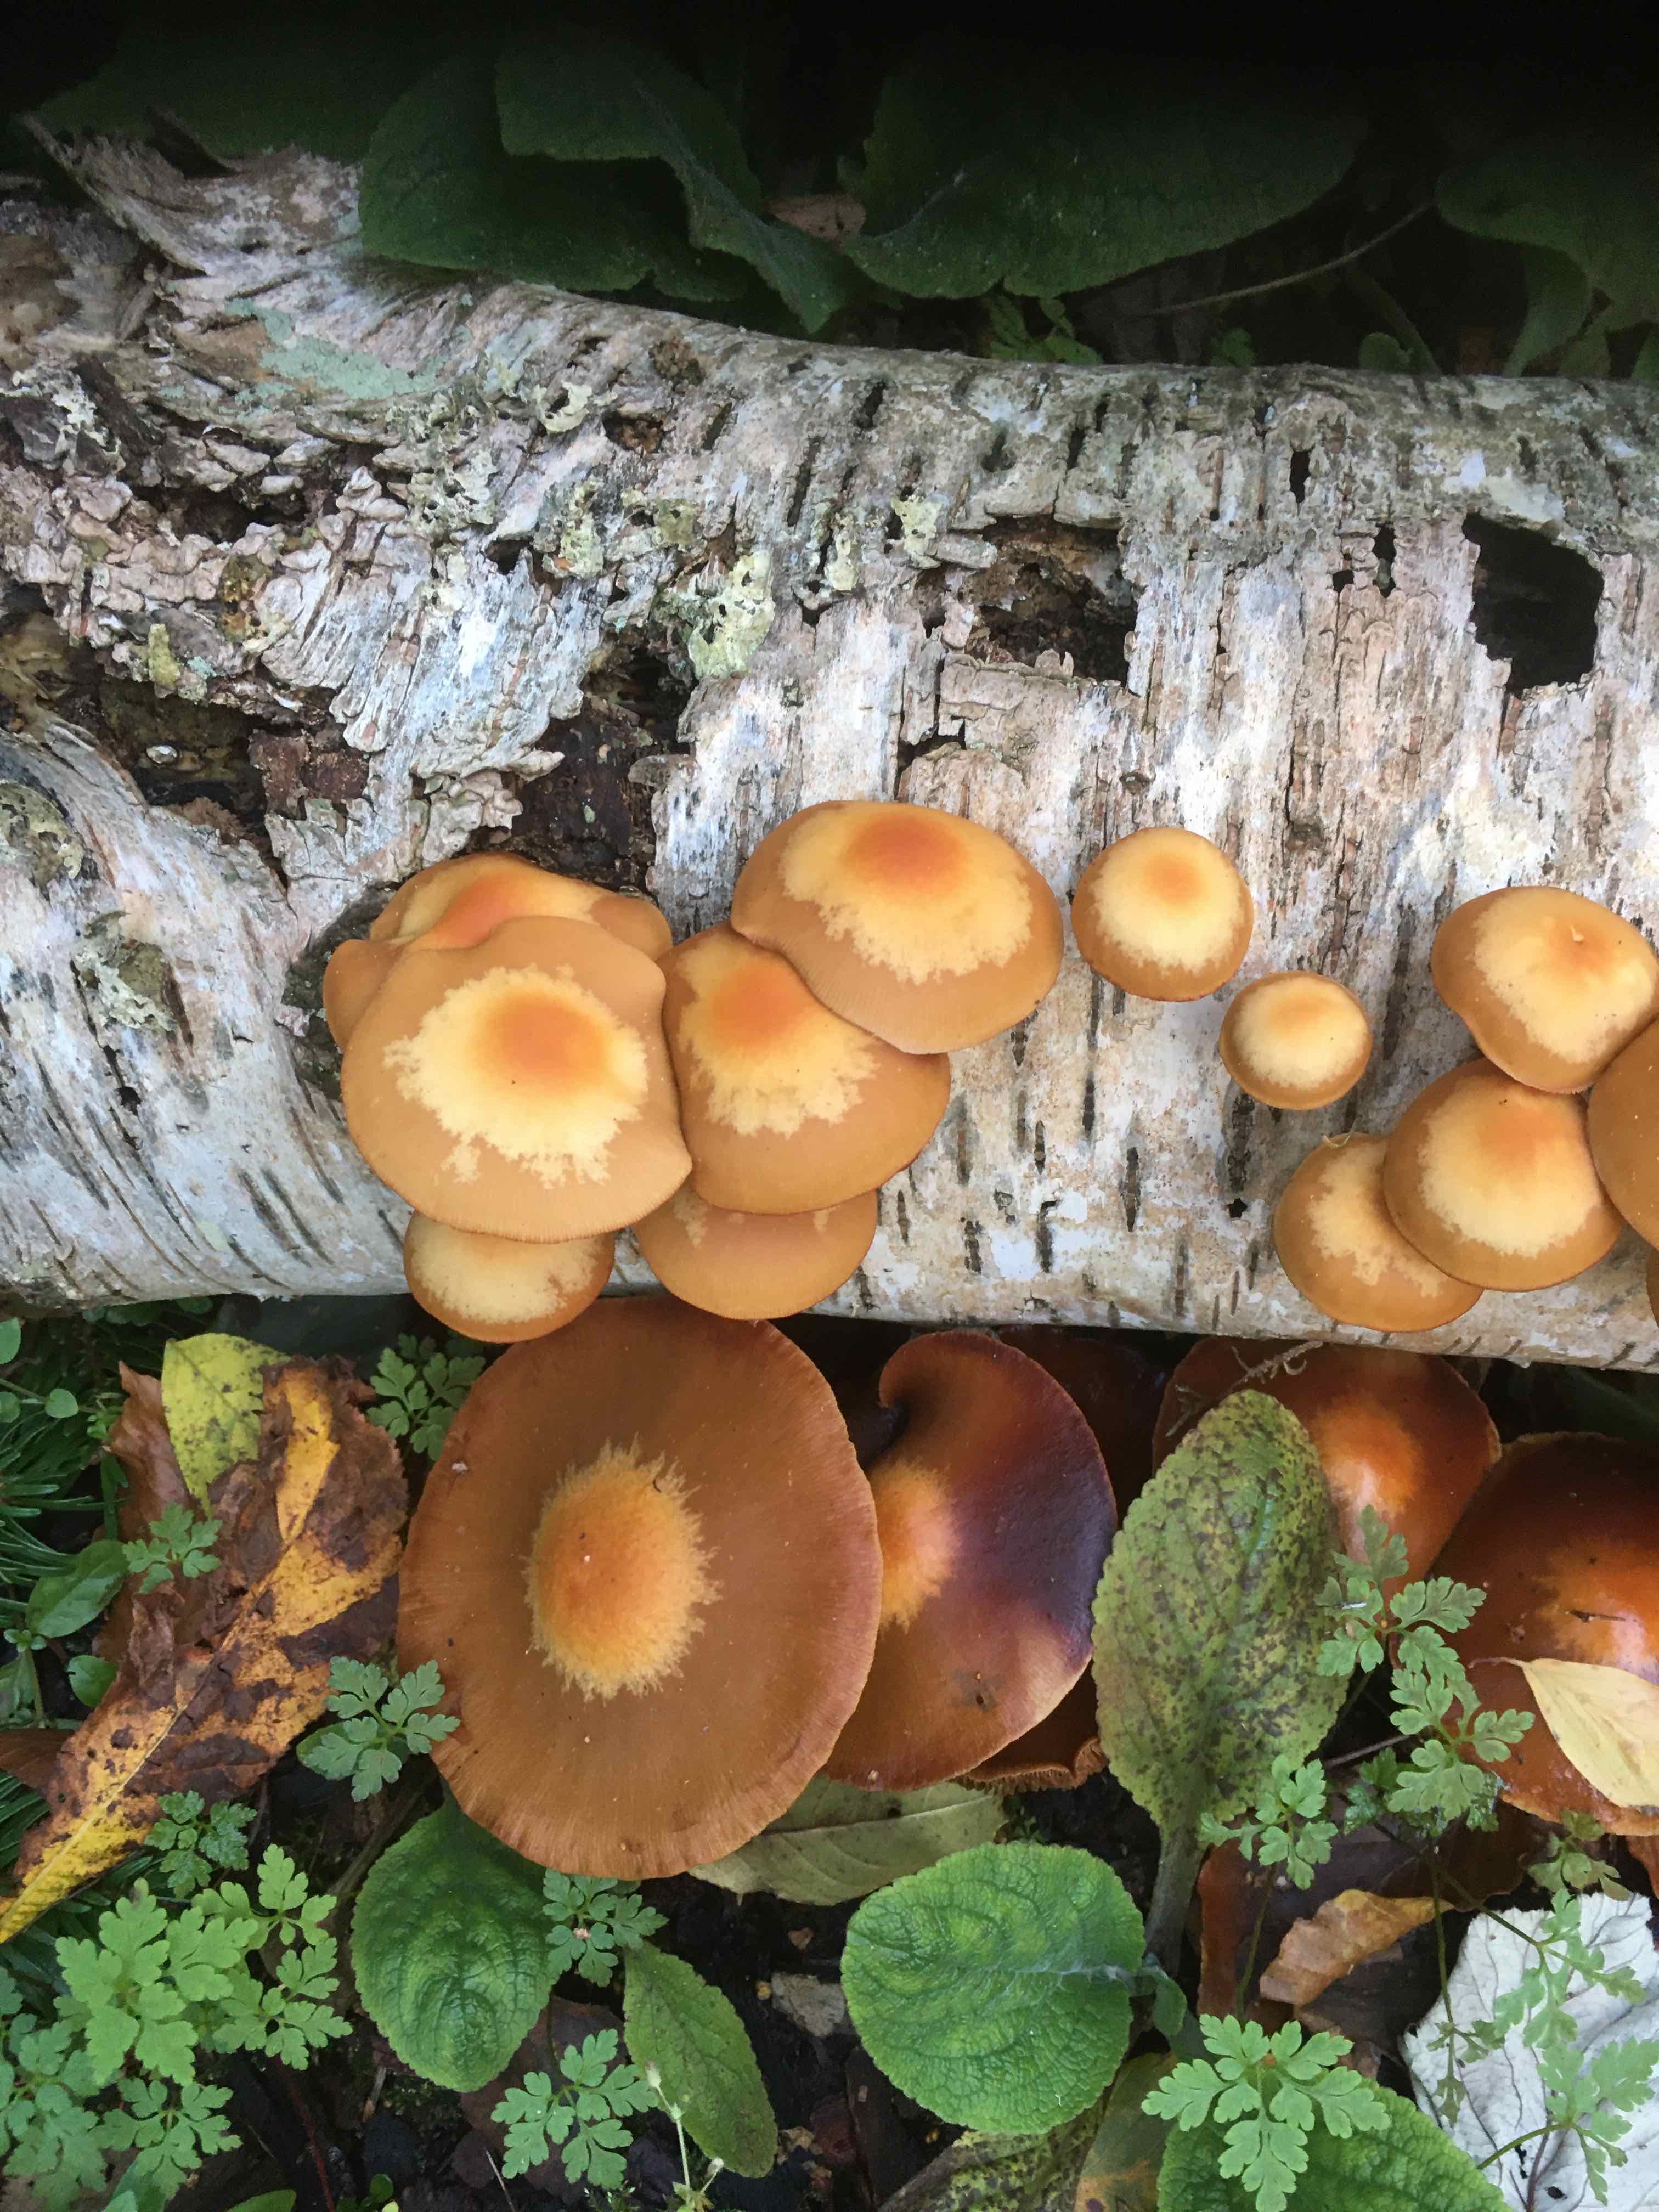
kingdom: Fungi
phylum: Basidiomycota
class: Agaricomycetes
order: Agaricales
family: Strophariaceae
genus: Kuehneromyces
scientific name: Kuehneromyces mutabilis
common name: foranderlig skælhat
